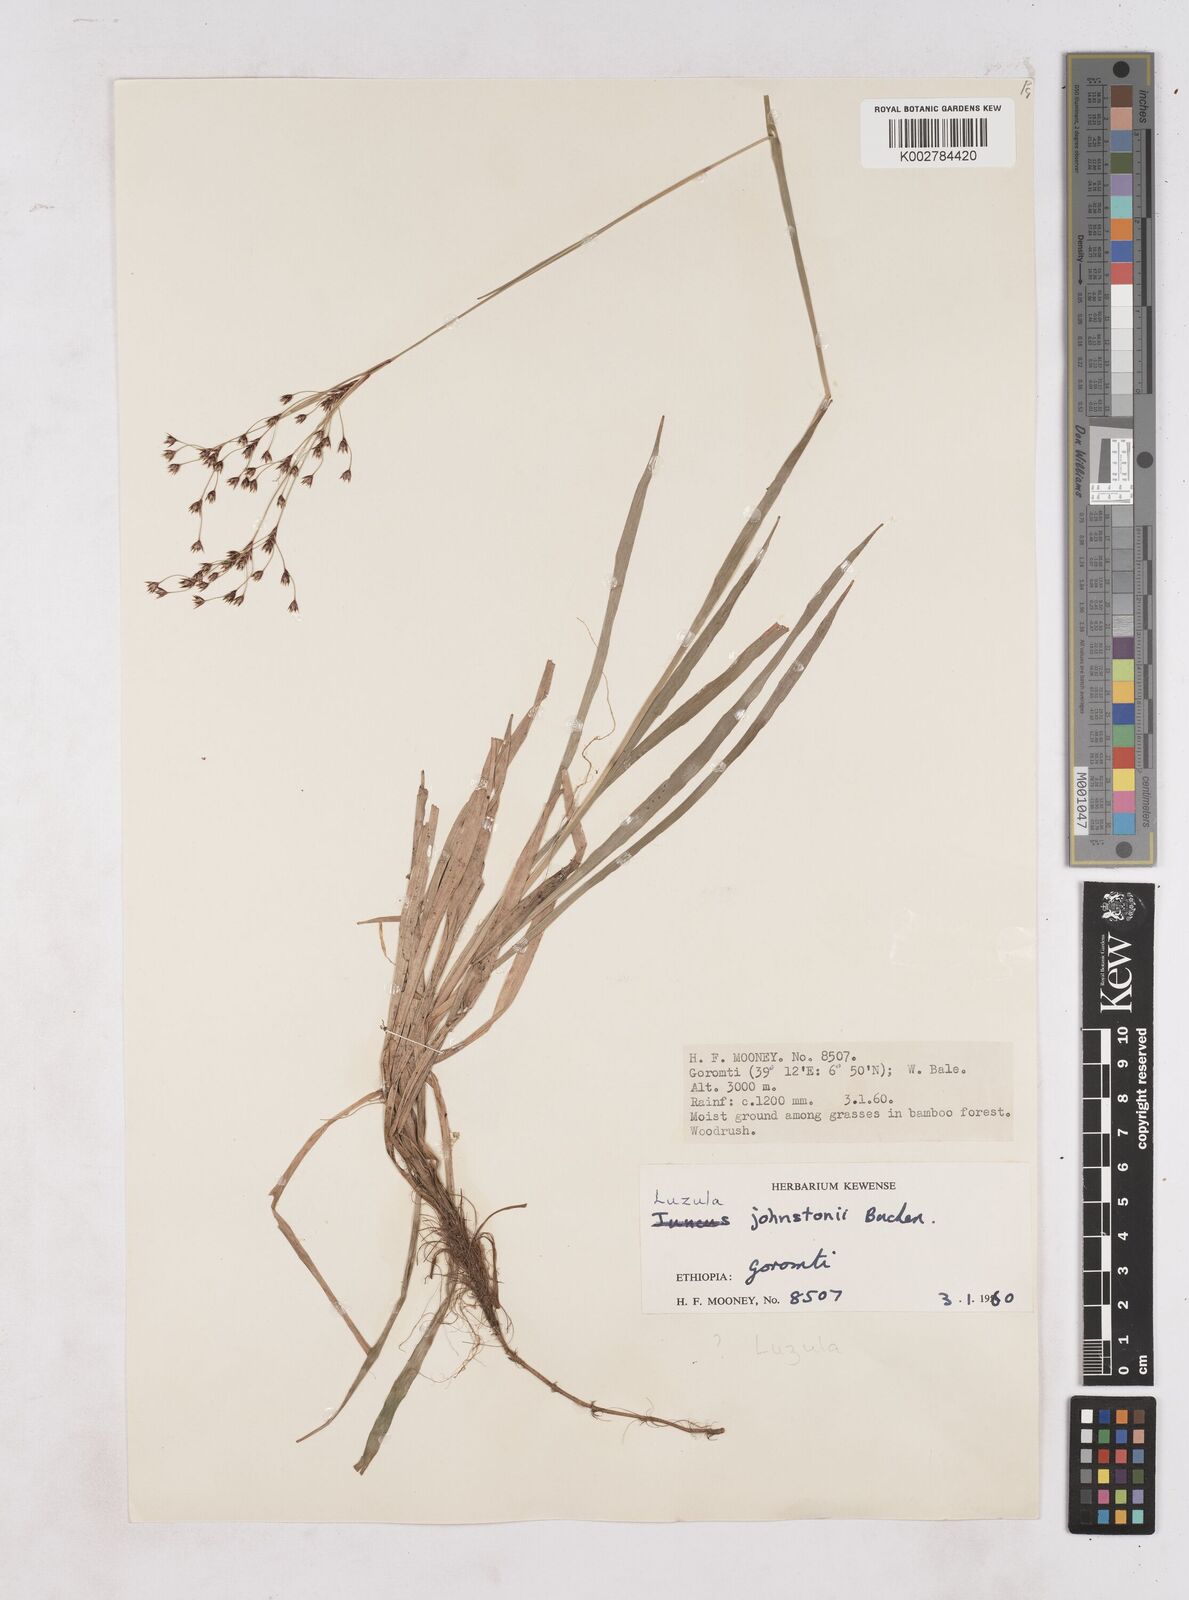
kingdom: Plantae
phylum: Tracheophyta
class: Liliopsida
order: Poales
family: Juncaceae
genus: Luzula
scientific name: Luzula johnstonii
